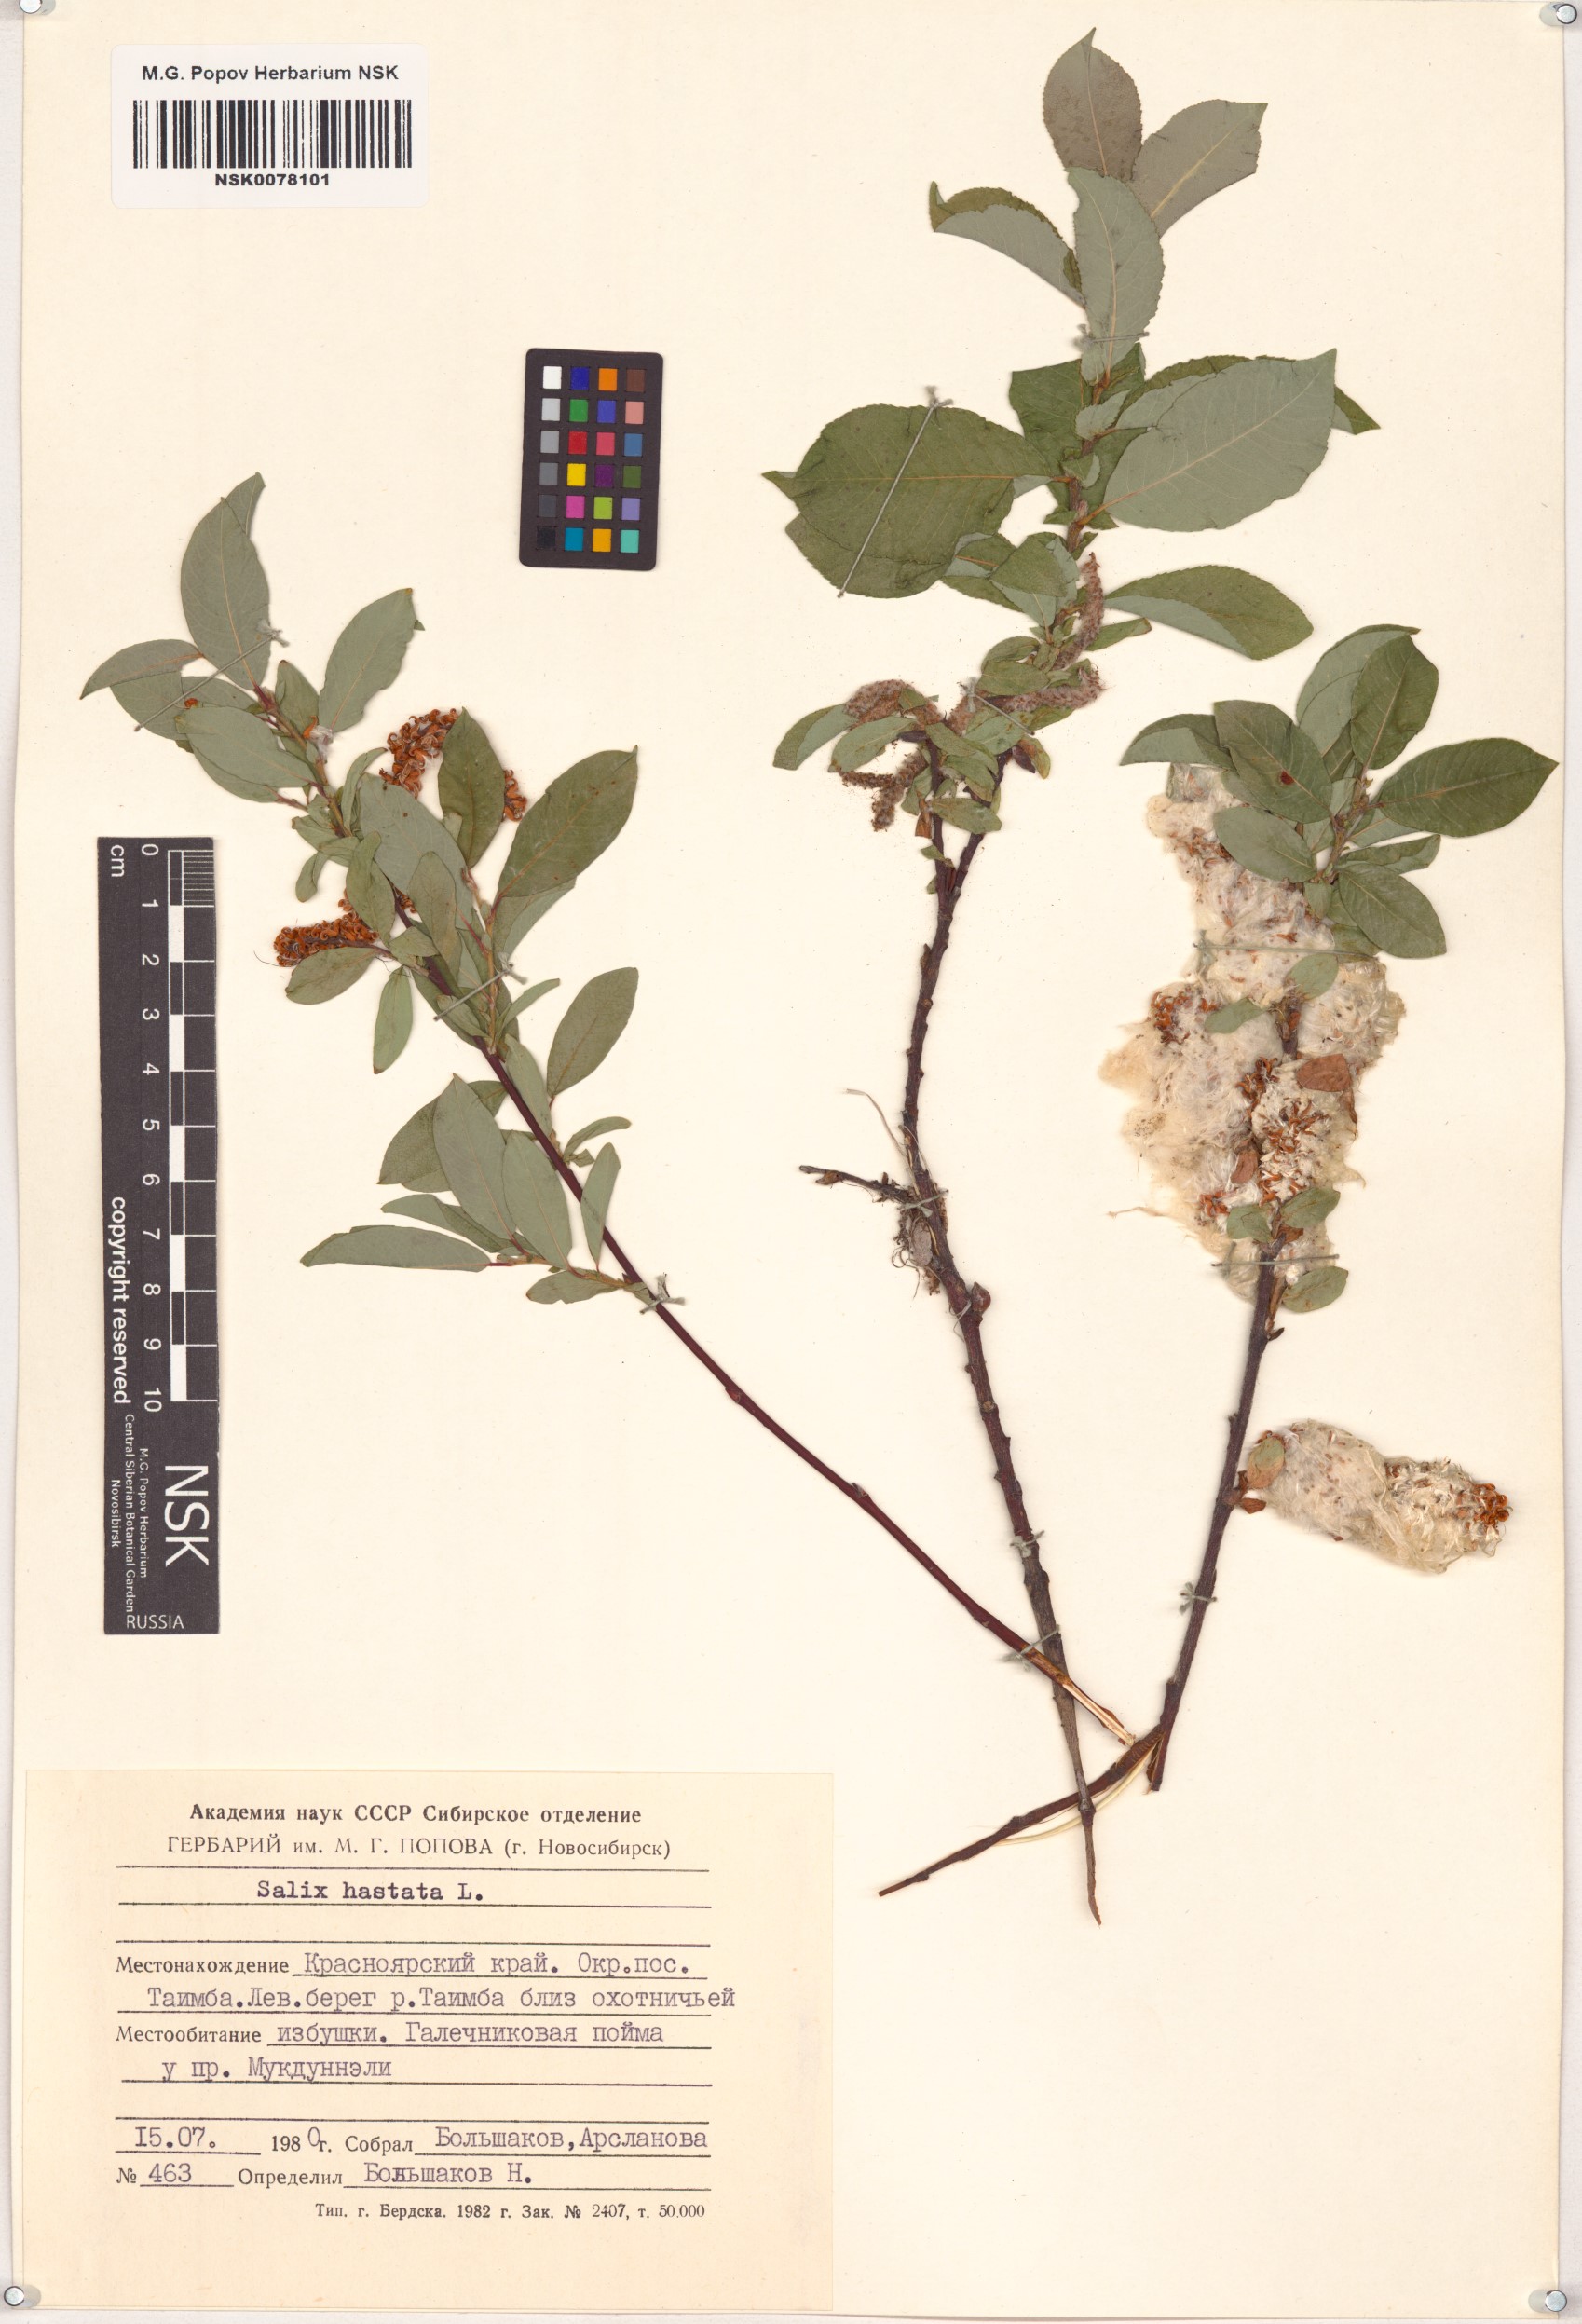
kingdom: Plantae
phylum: Tracheophyta
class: Magnoliopsida
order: Malpighiales
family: Salicaceae
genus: Salix
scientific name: Salix hastata
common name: Halberd willow
